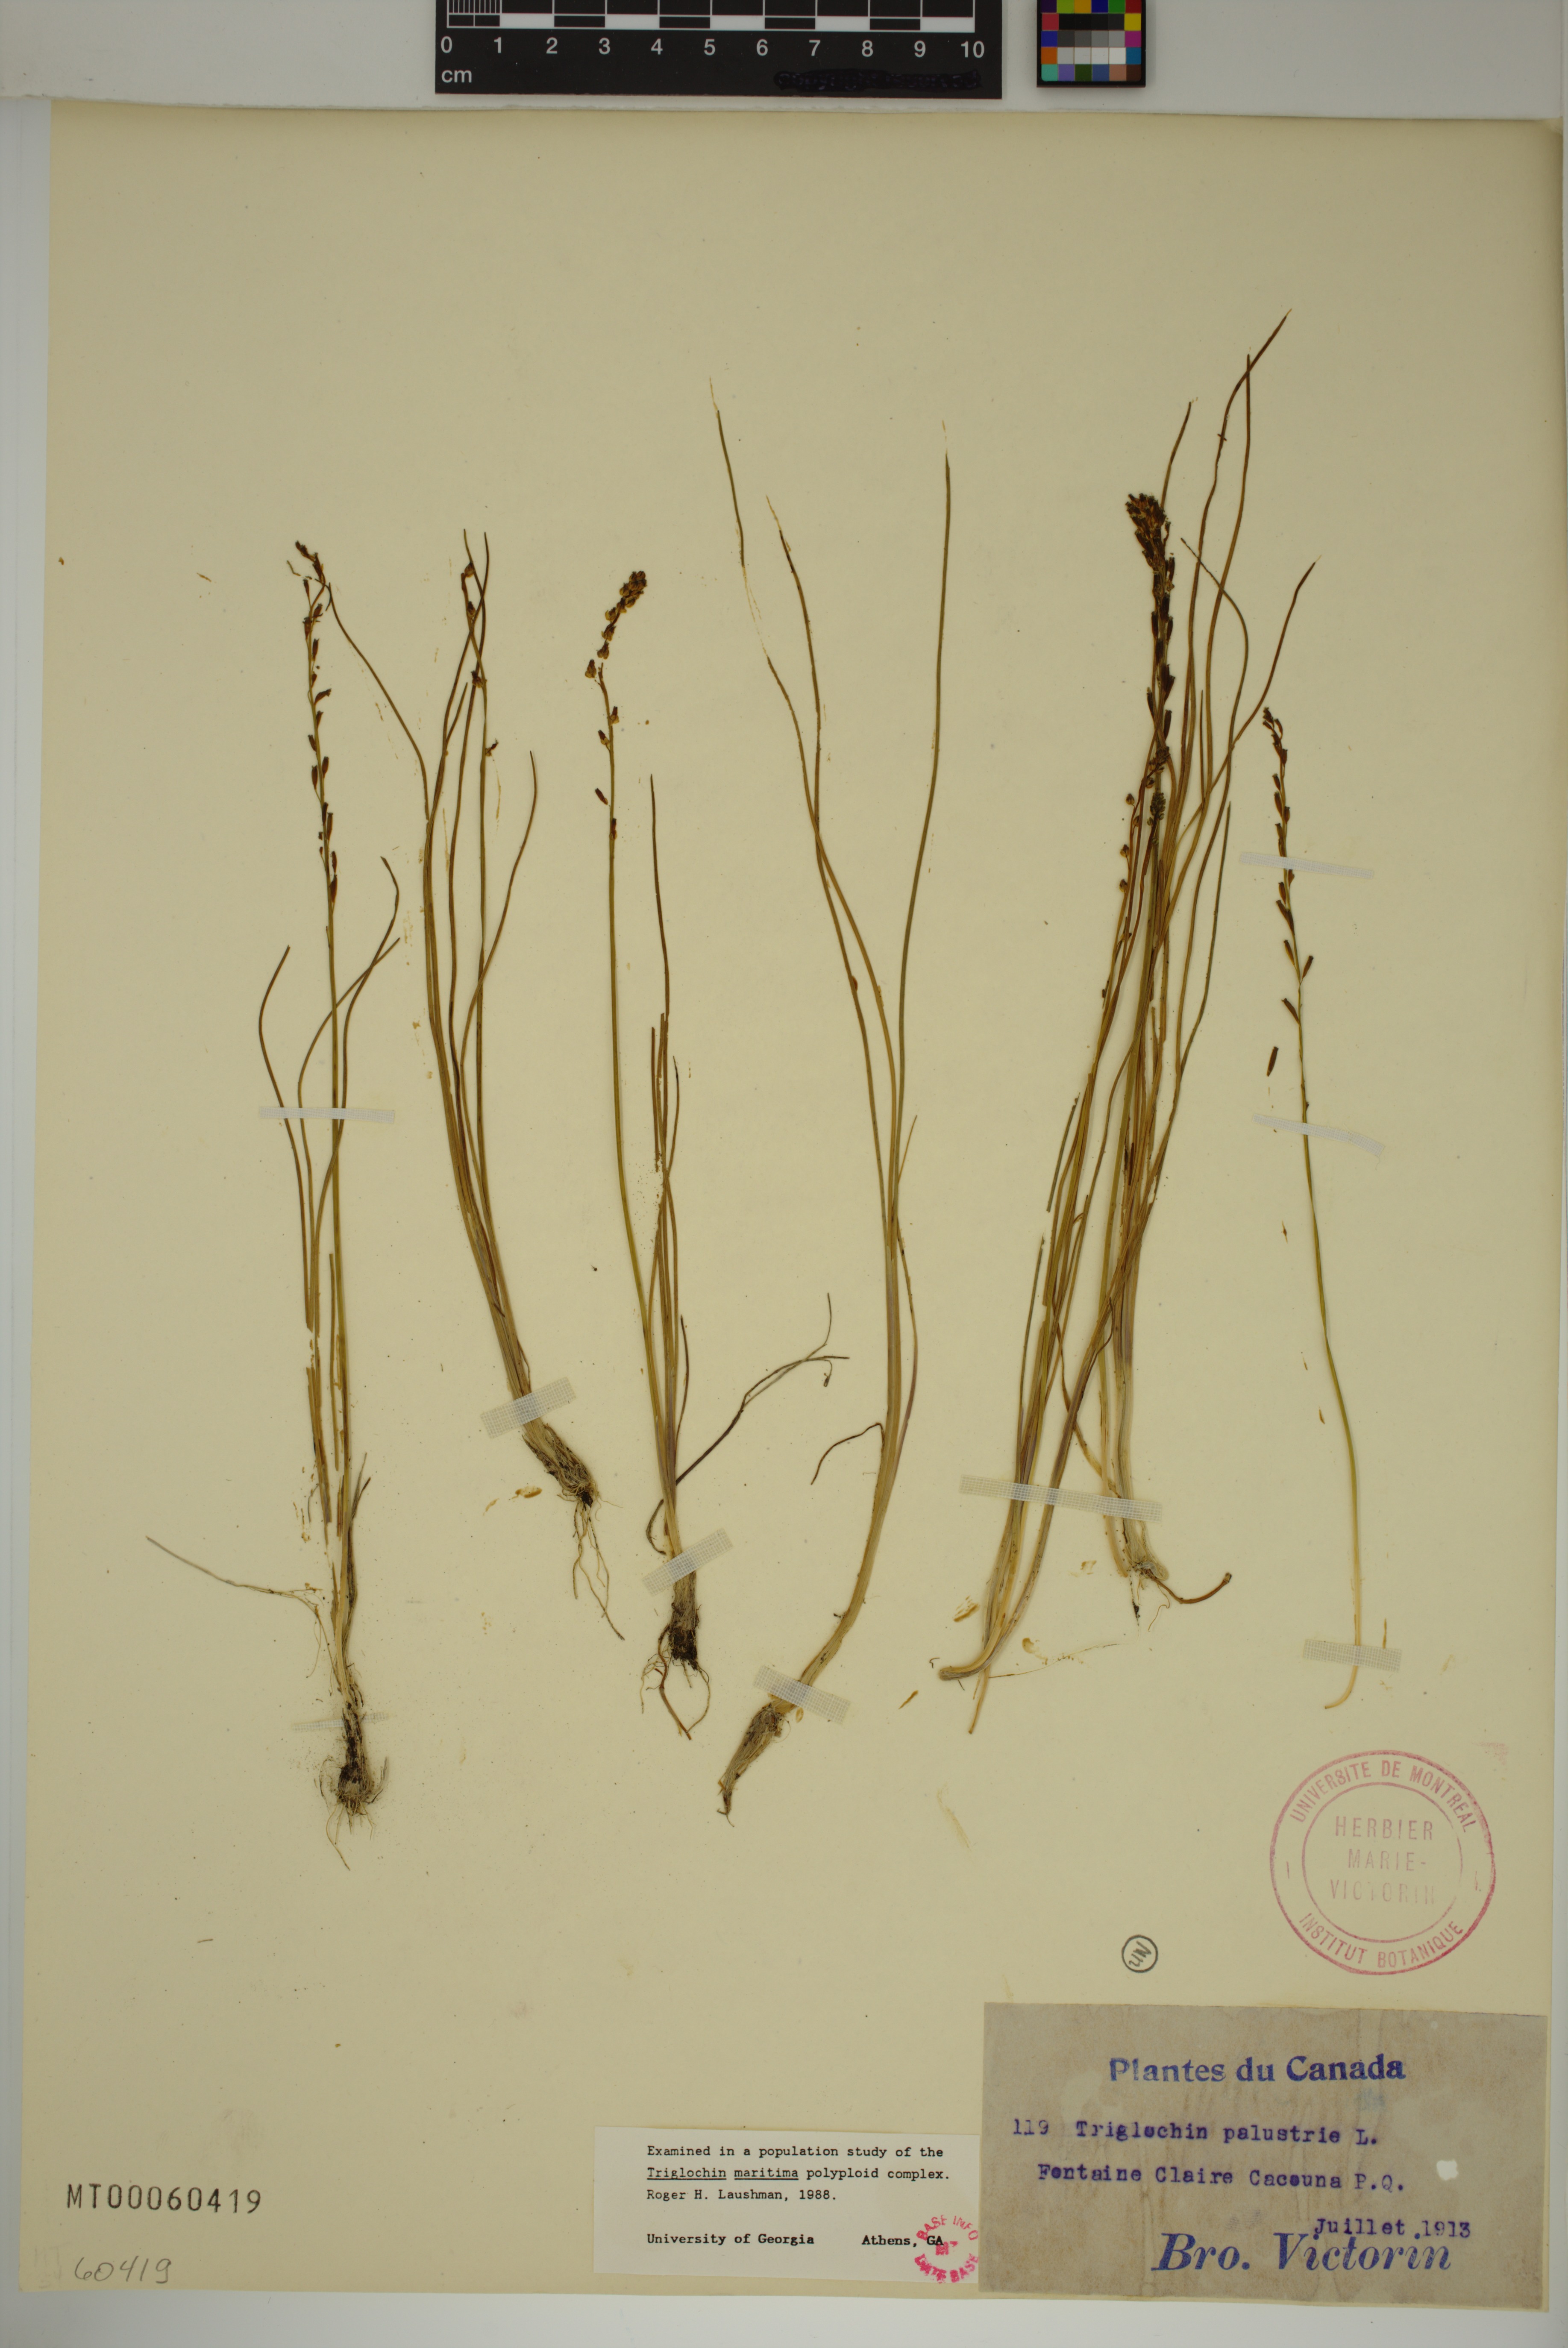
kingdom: Plantae
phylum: Tracheophyta
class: Liliopsida
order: Alismatales
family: Juncaginaceae
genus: Triglochin
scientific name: Triglochin palustris
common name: Marsh arrowgrass
